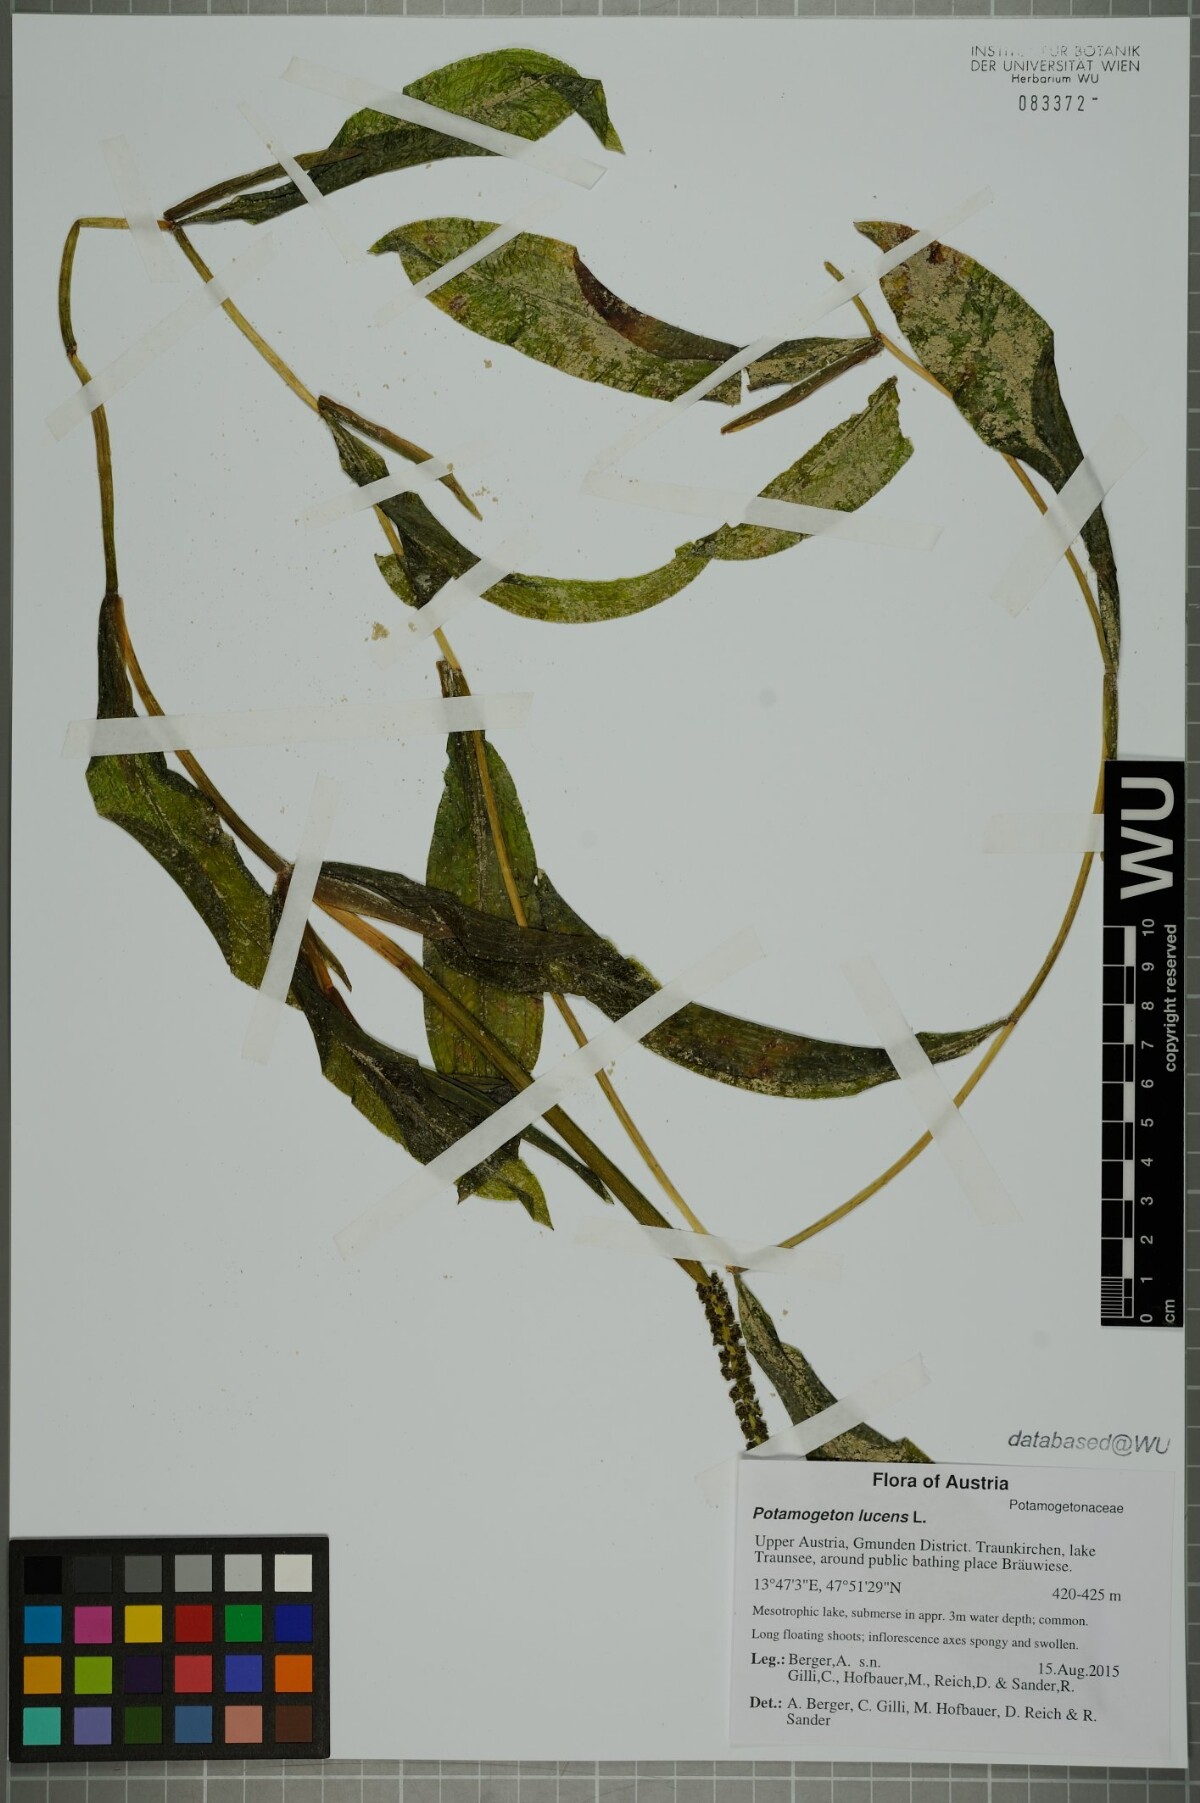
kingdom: Plantae
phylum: Tracheophyta
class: Liliopsida
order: Alismatales
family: Potamogetonaceae
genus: Potamogeton
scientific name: Potamogeton lucens
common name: Shining pondweed
